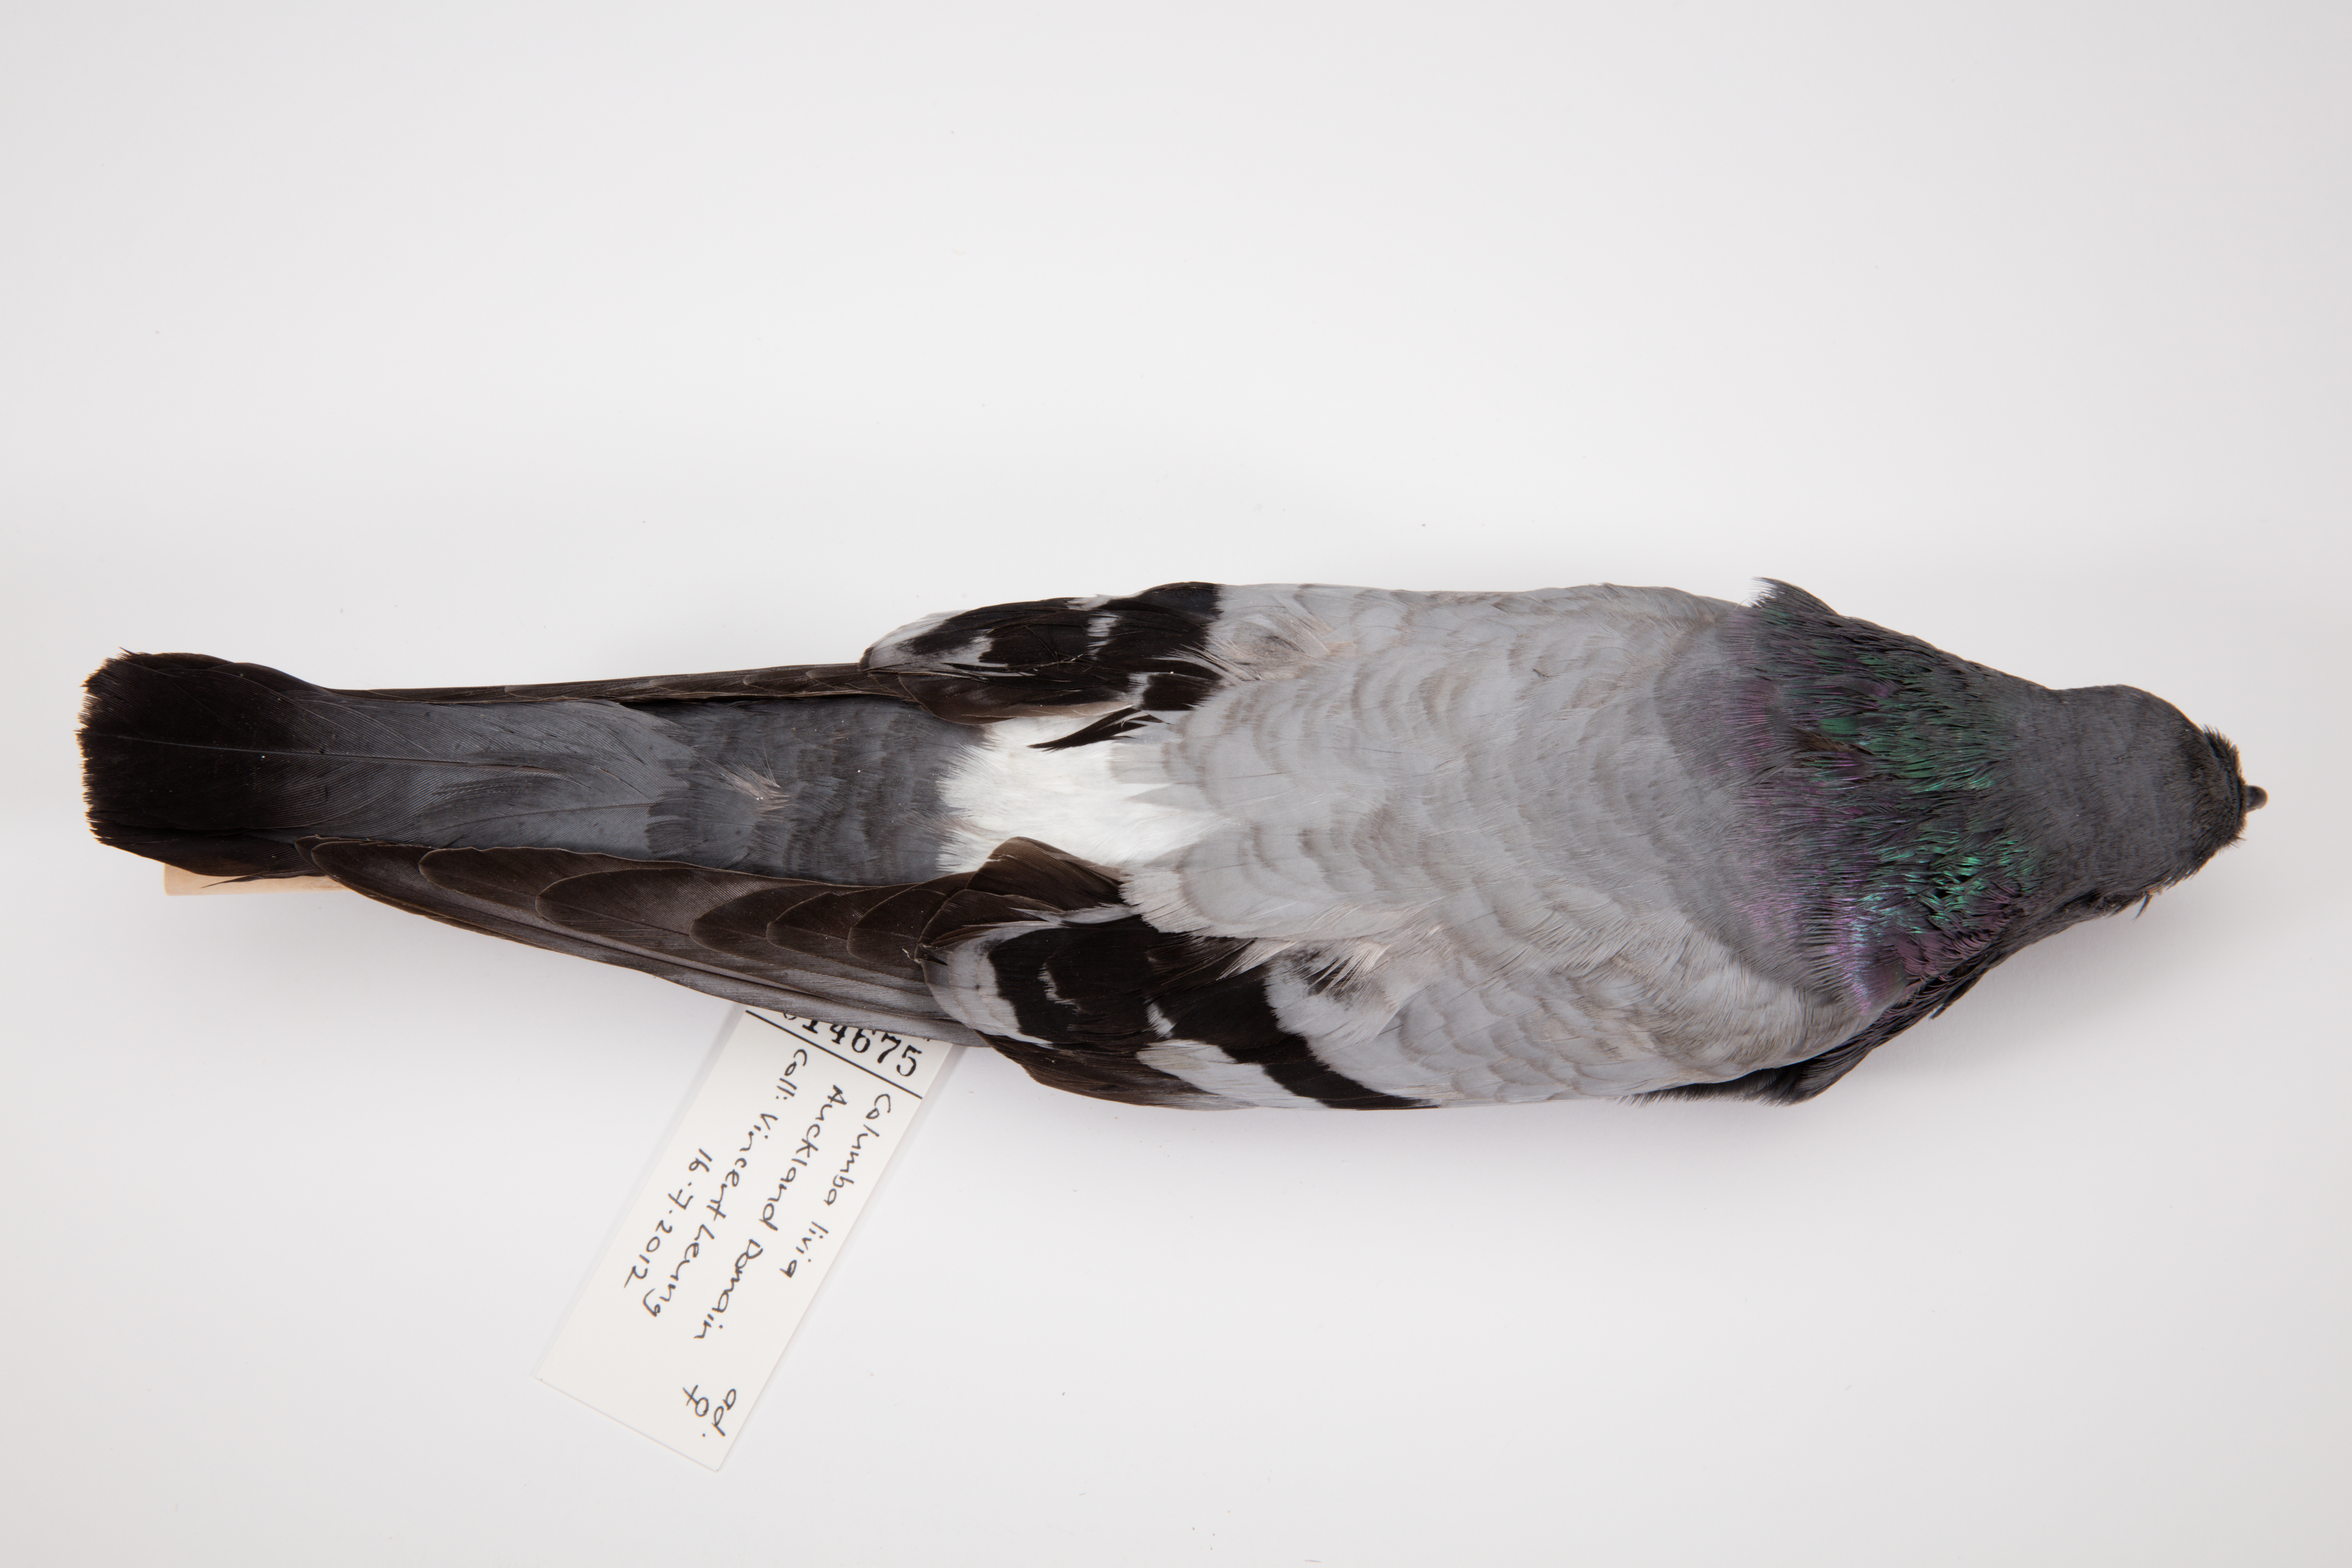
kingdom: Animalia
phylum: Chordata
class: Aves
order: Columbiformes
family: Columbidae
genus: Columba
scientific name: Columba livia
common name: Rock pigeon
